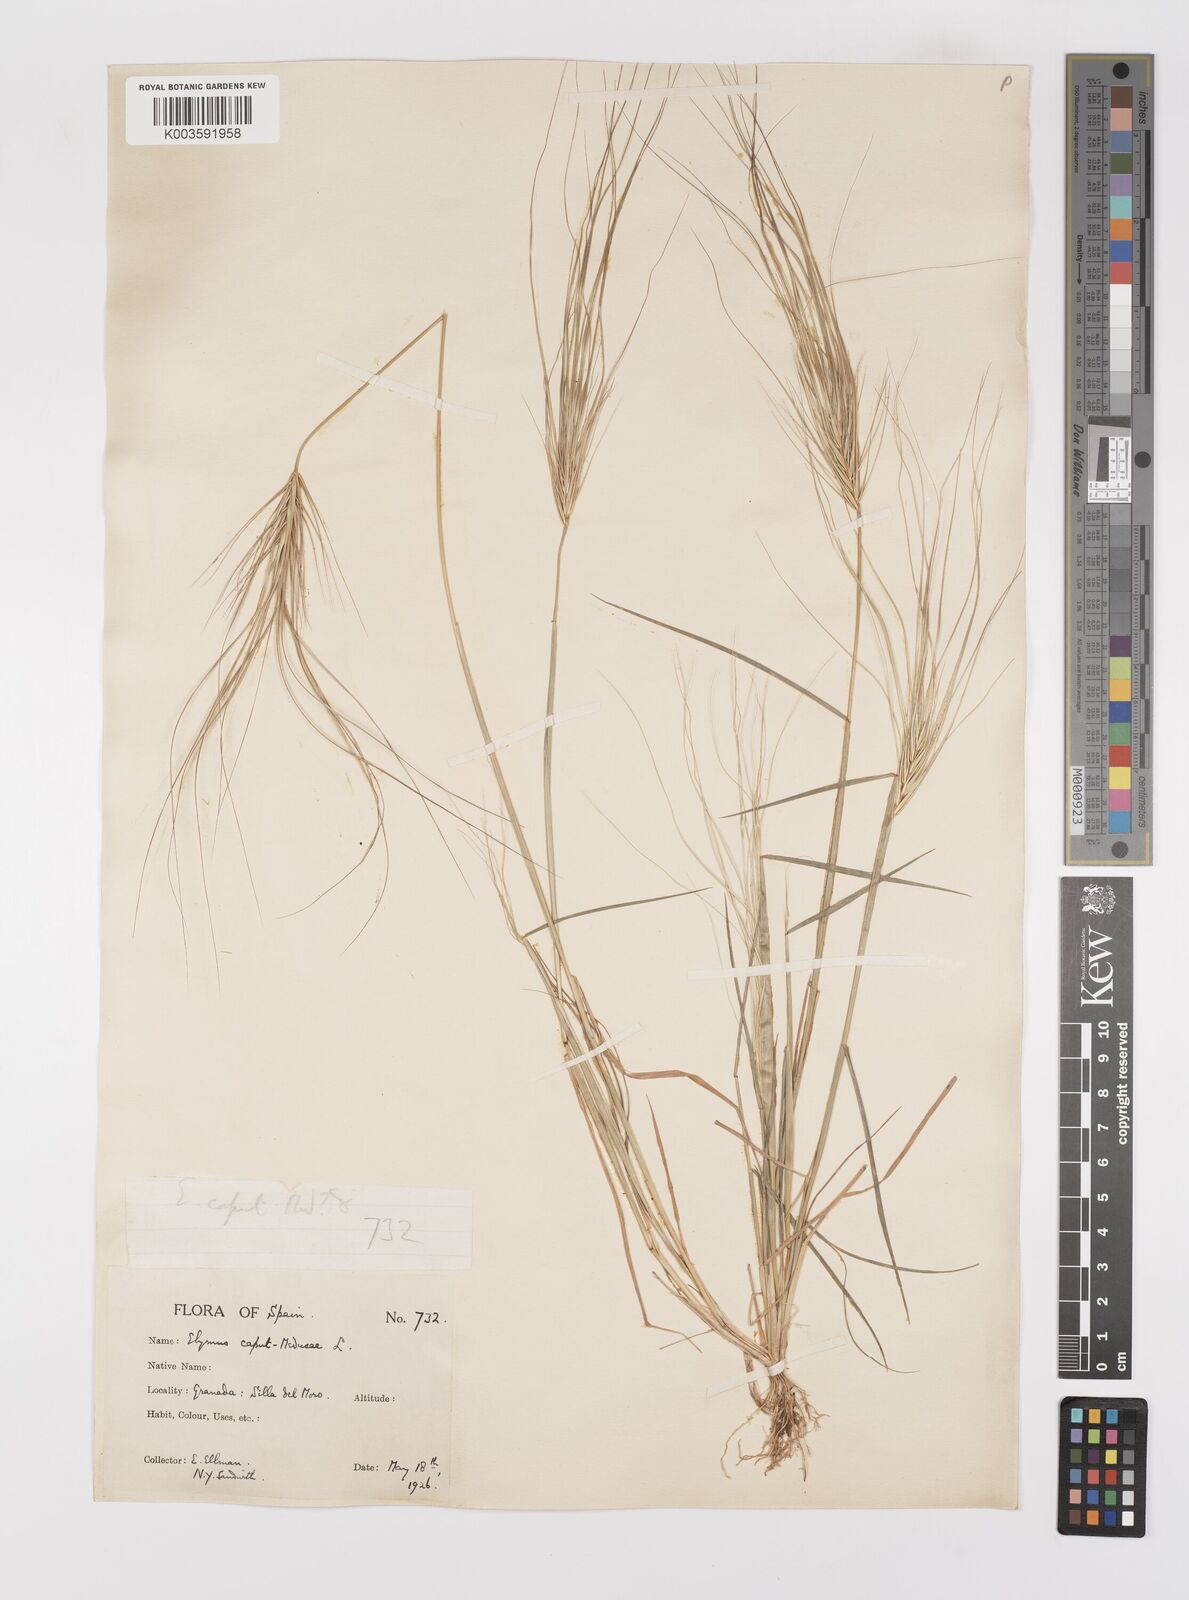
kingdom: Plantae
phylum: Tracheophyta
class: Liliopsida
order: Poales
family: Poaceae
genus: Taeniatherum
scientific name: Taeniatherum caput-medusae
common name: Medusahead
